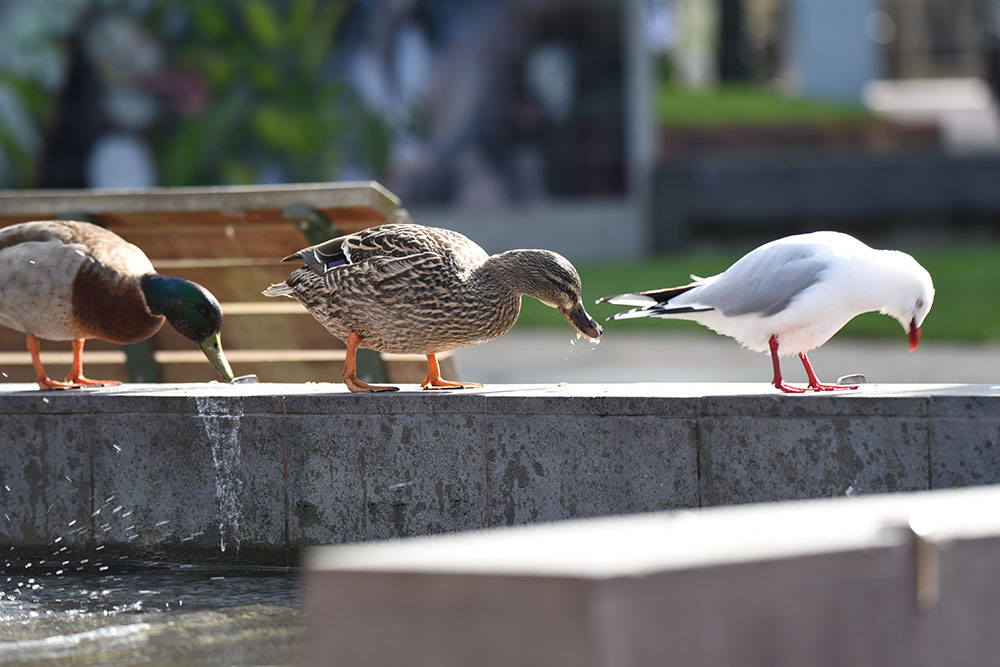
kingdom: Animalia
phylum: Chordata
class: Aves
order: Anseriformes
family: Anatidae
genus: Anas
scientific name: Anas platyrhynchos
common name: Mallard
